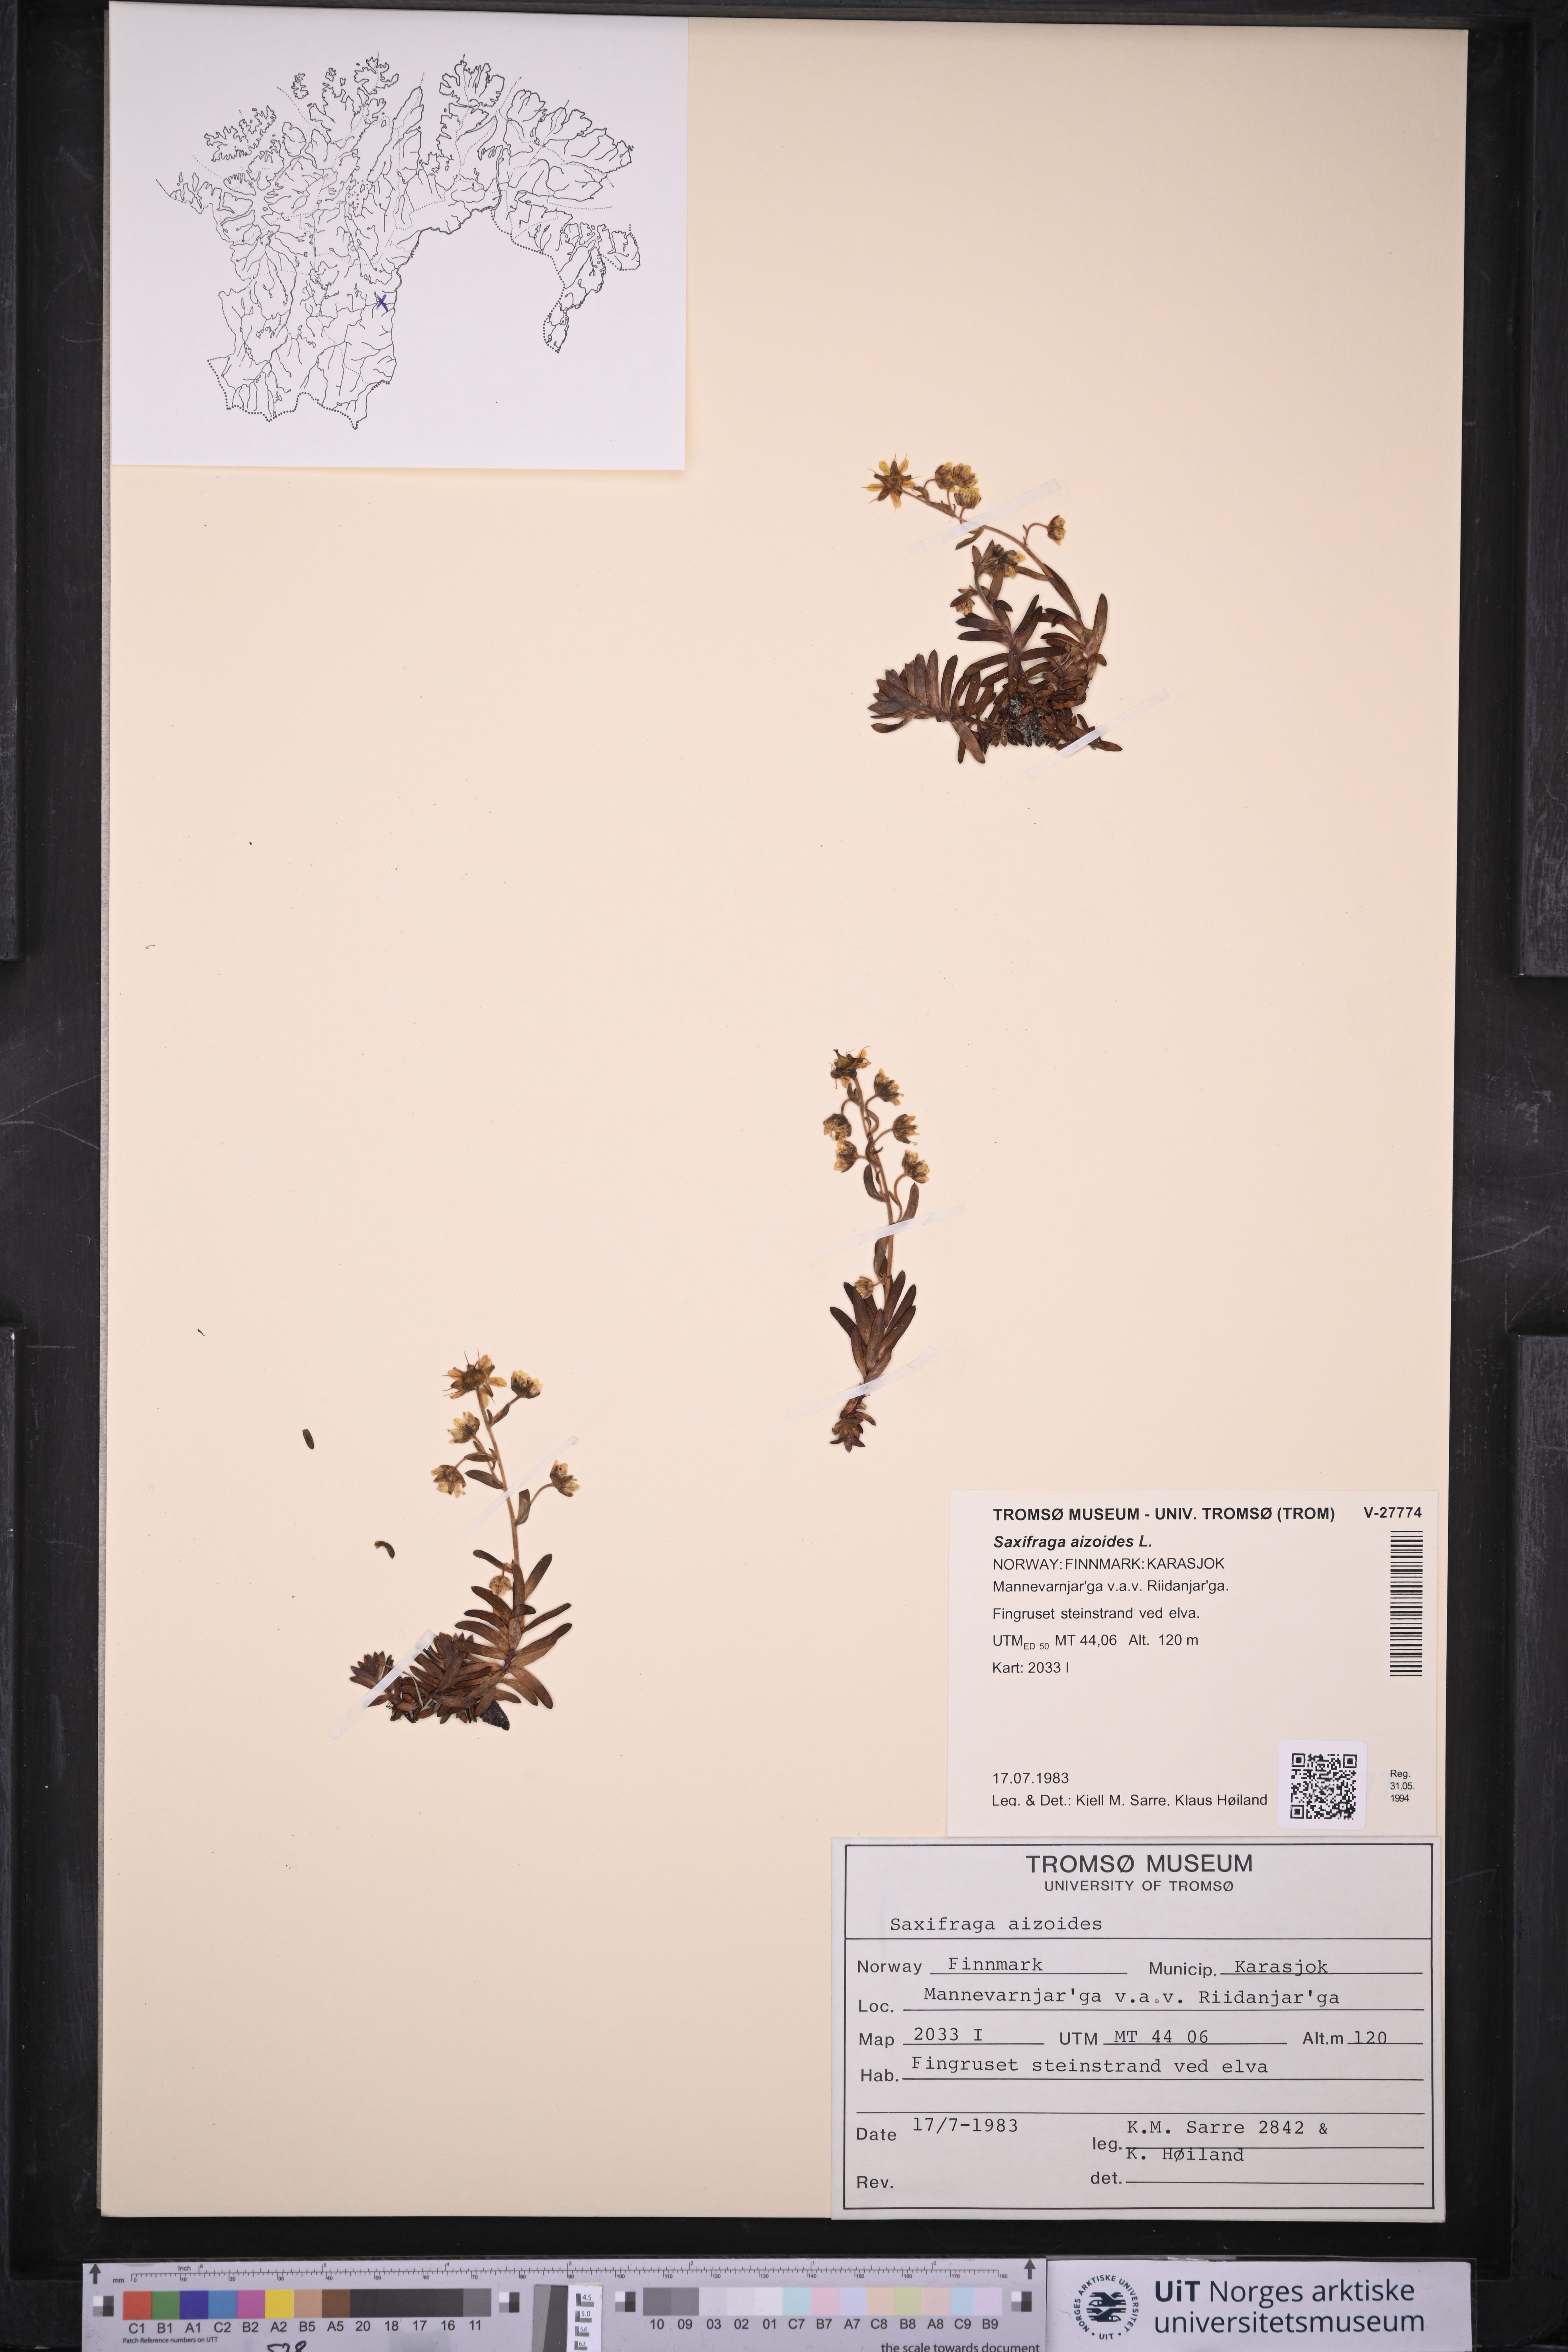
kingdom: Plantae
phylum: Tracheophyta
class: Magnoliopsida
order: Saxifragales
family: Saxifragaceae
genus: Saxifraga
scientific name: Saxifraga aizoides
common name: Yellow mountain saxifrage
